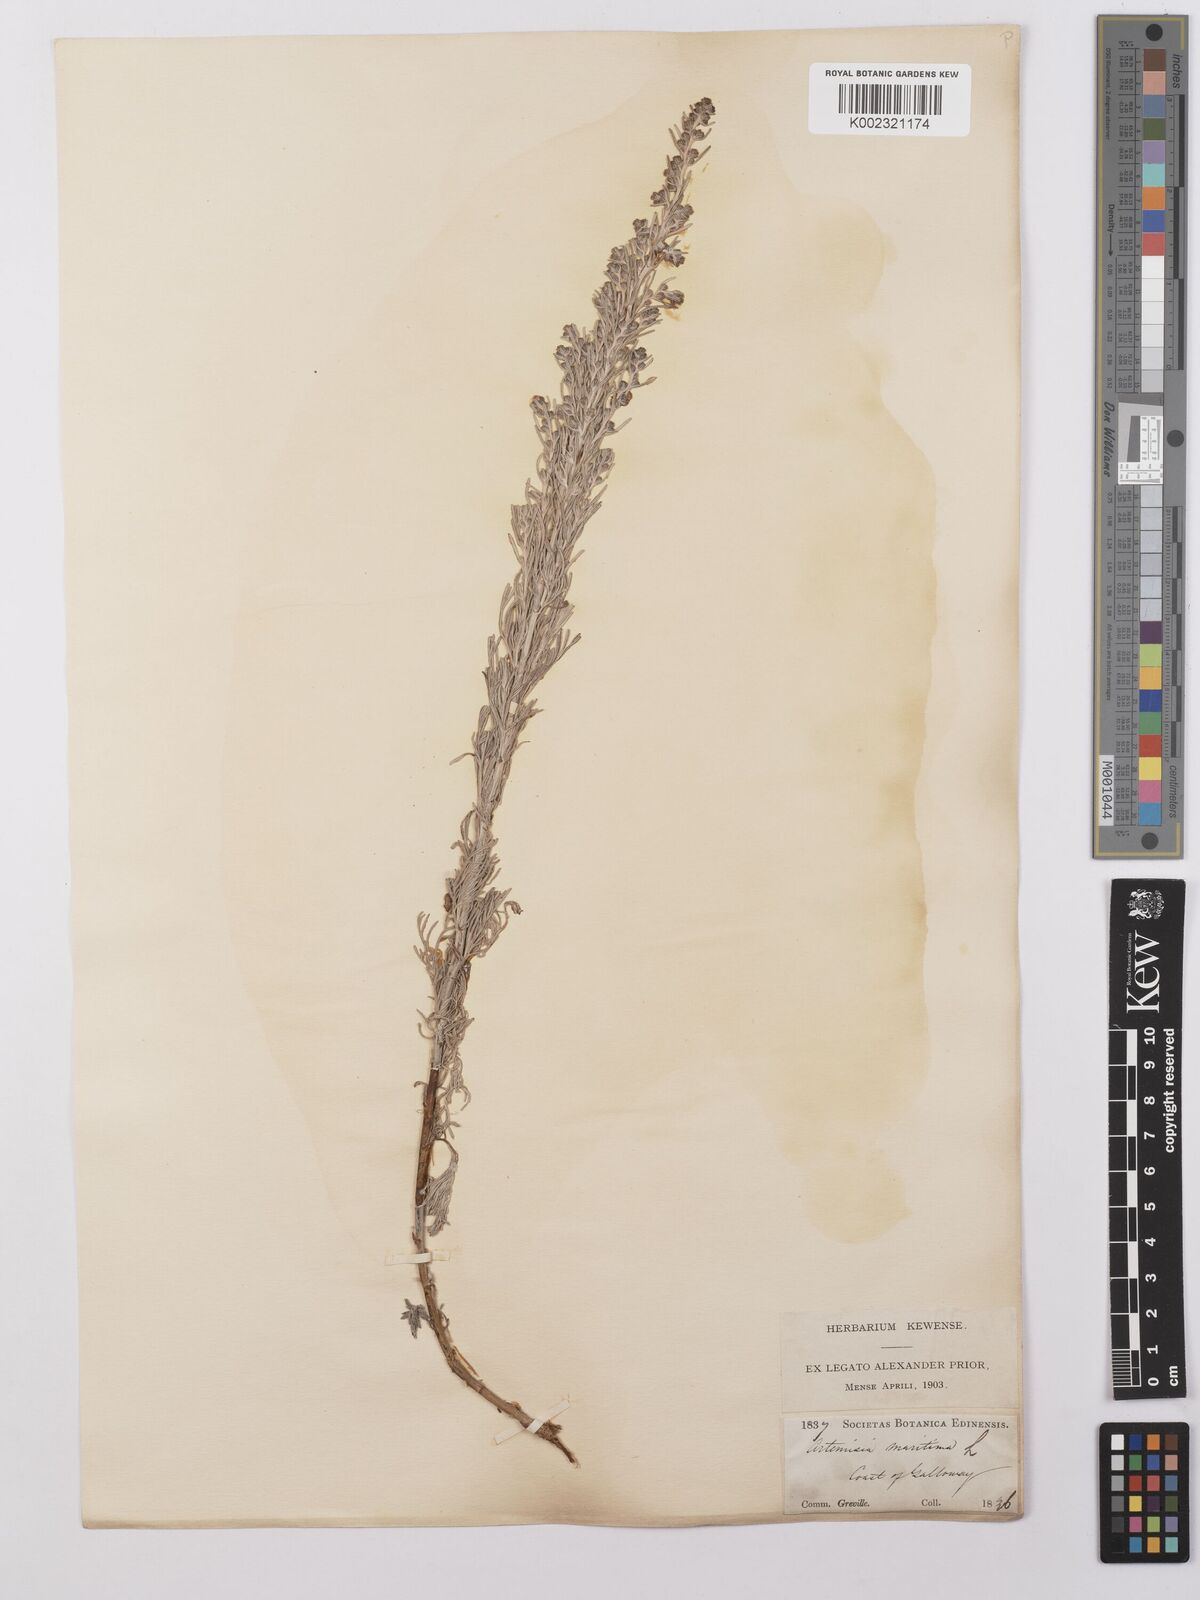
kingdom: Plantae
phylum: Tracheophyta
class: Magnoliopsida
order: Asterales
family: Asteraceae
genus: Artemisia
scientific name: Artemisia maritima
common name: Wormseed
